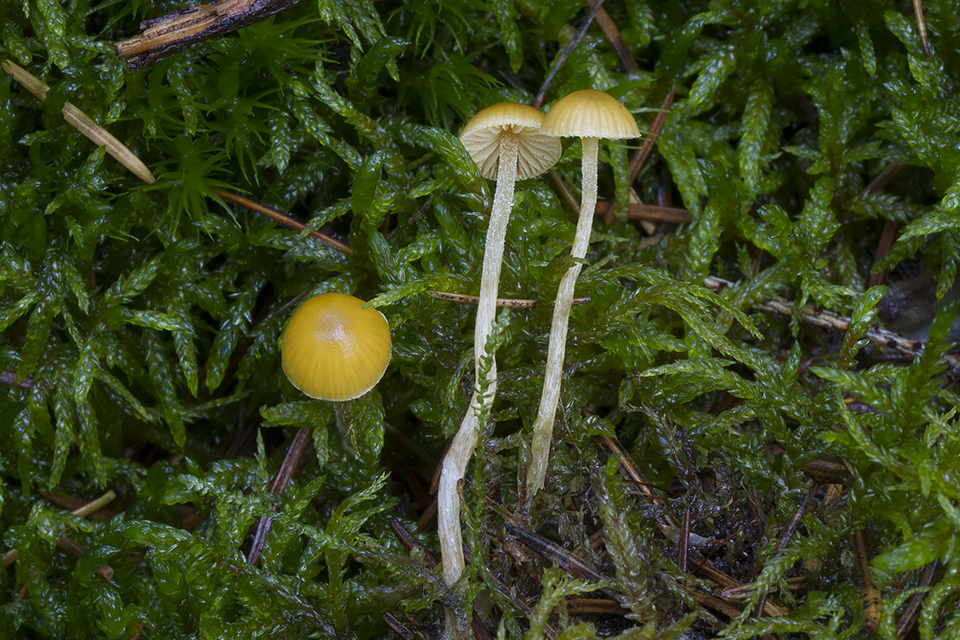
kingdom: Fungi
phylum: Basidiomycota
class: Agaricomycetes
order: Agaricales
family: Hymenogastraceae
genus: Galerina
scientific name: Galerina pumila
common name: honninggul hjelmhat
